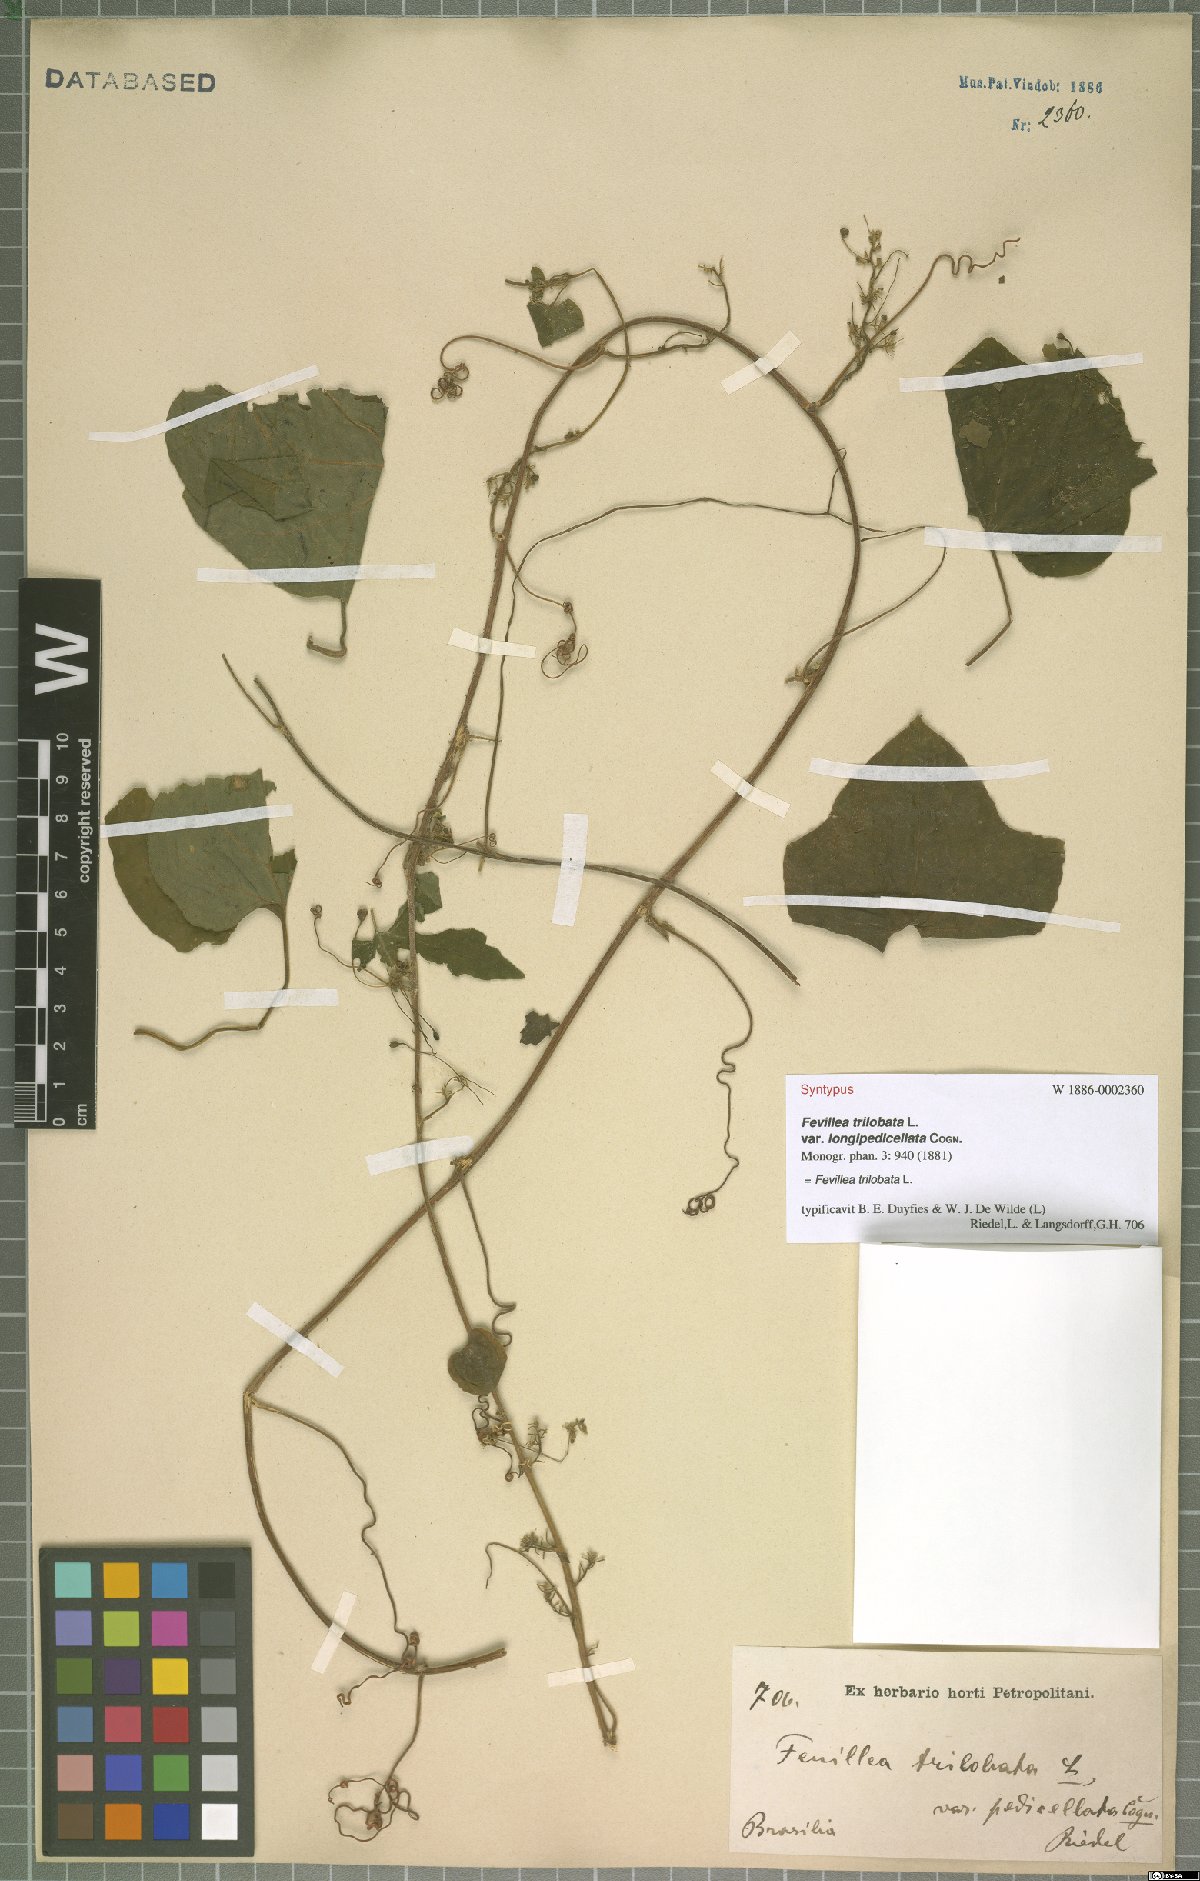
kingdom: Plantae
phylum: Tracheophyta
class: Magnoliopsida
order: Cucurbitales
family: Cucurbitaceae
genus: Fevillea
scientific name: Fevillea trilobata
